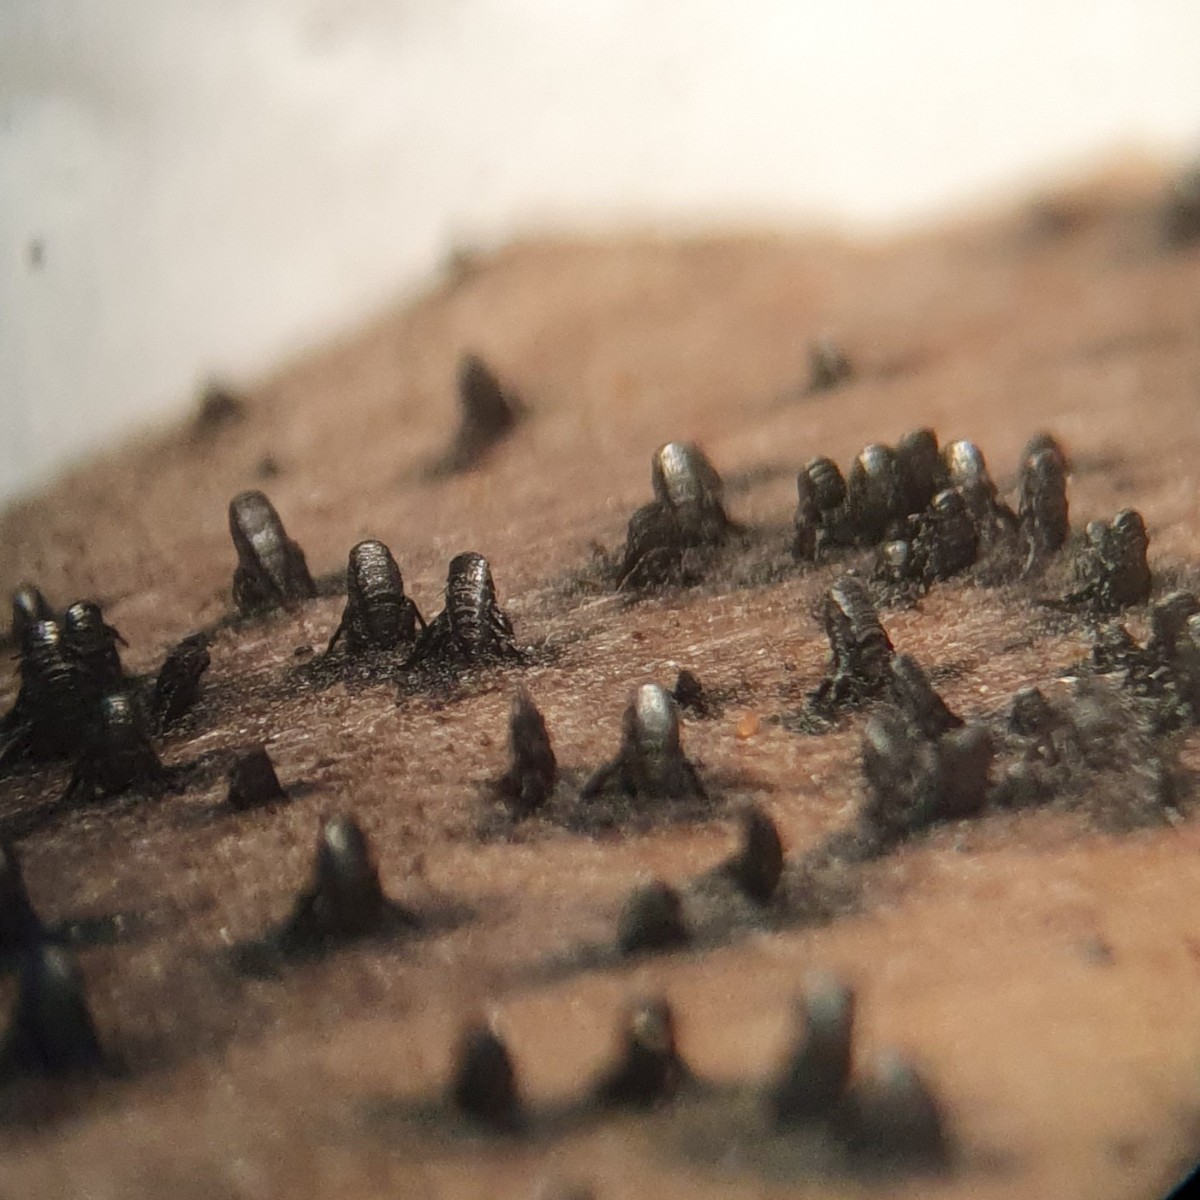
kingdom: Fungi
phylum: Ascomycota
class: Eurotiomycetes
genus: Glyphium
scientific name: Glyphium elatum
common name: kuløkse
